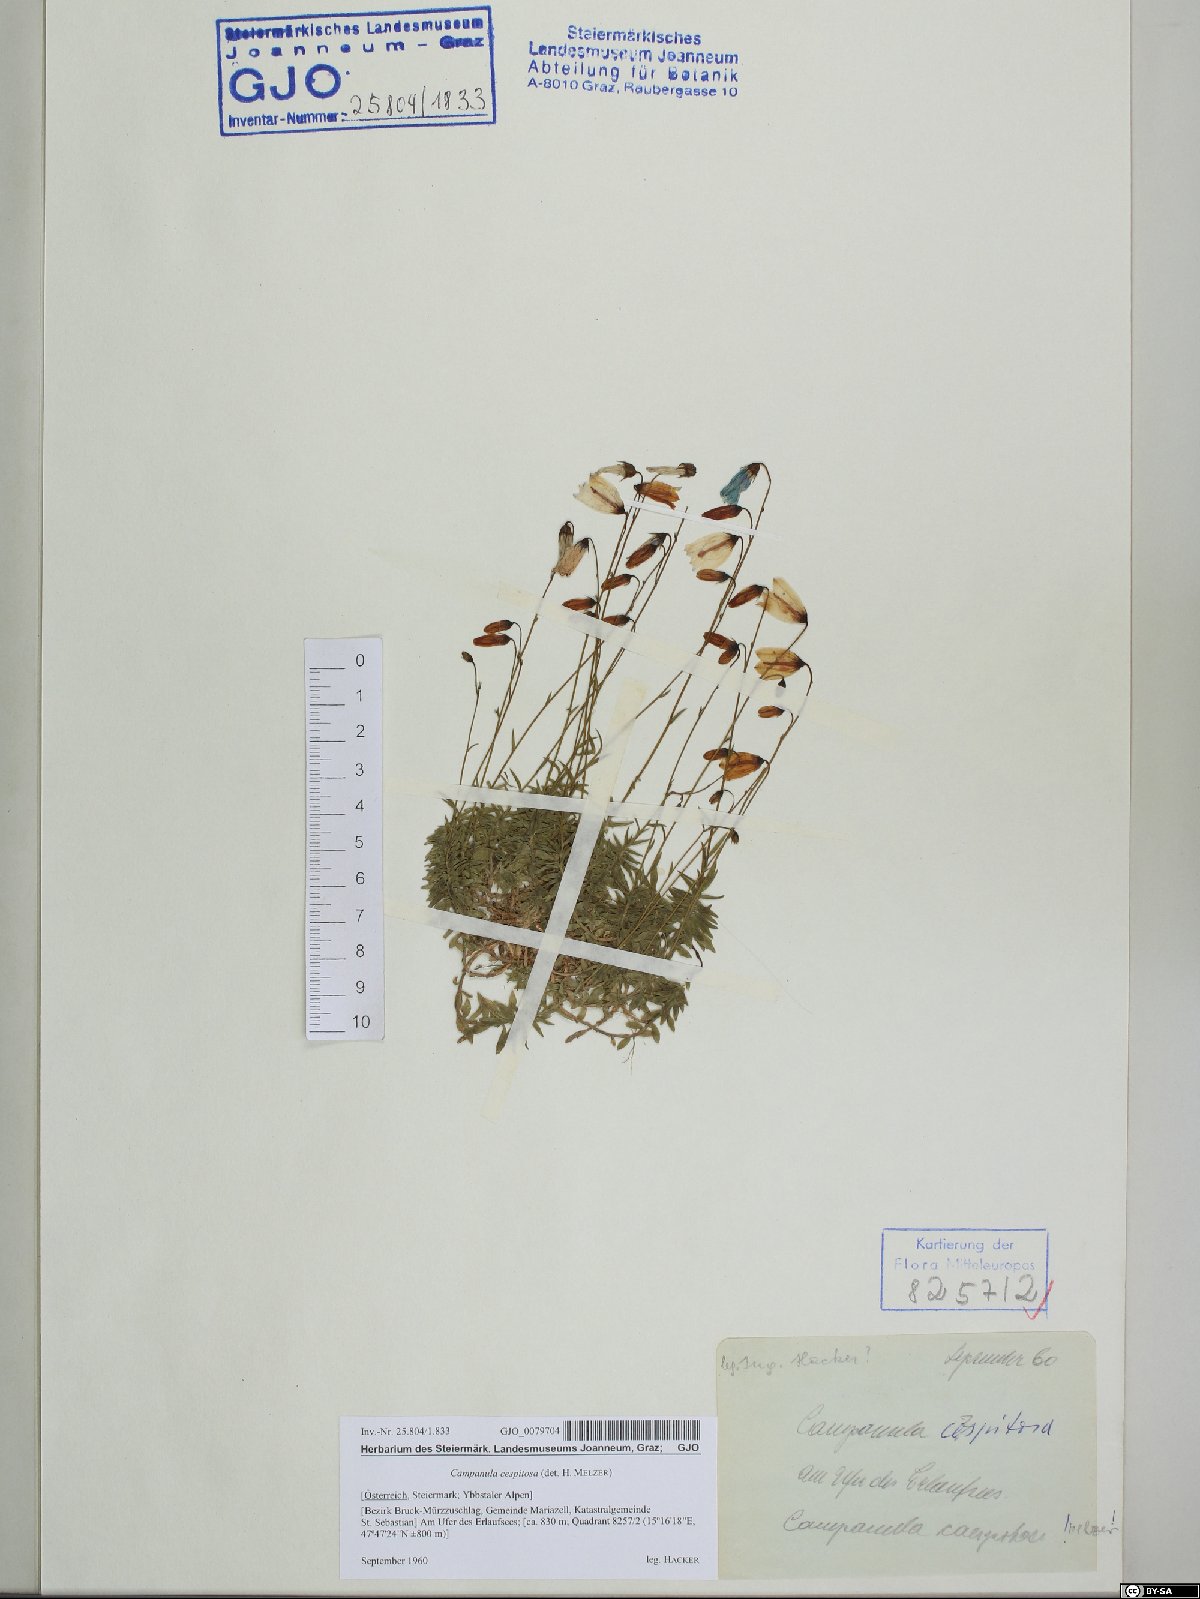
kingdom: Plantae
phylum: Tracheophyta
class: Magnoliopsida
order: Asterales
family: Campanulaceae
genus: Campanula
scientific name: Campanula cespitosa
